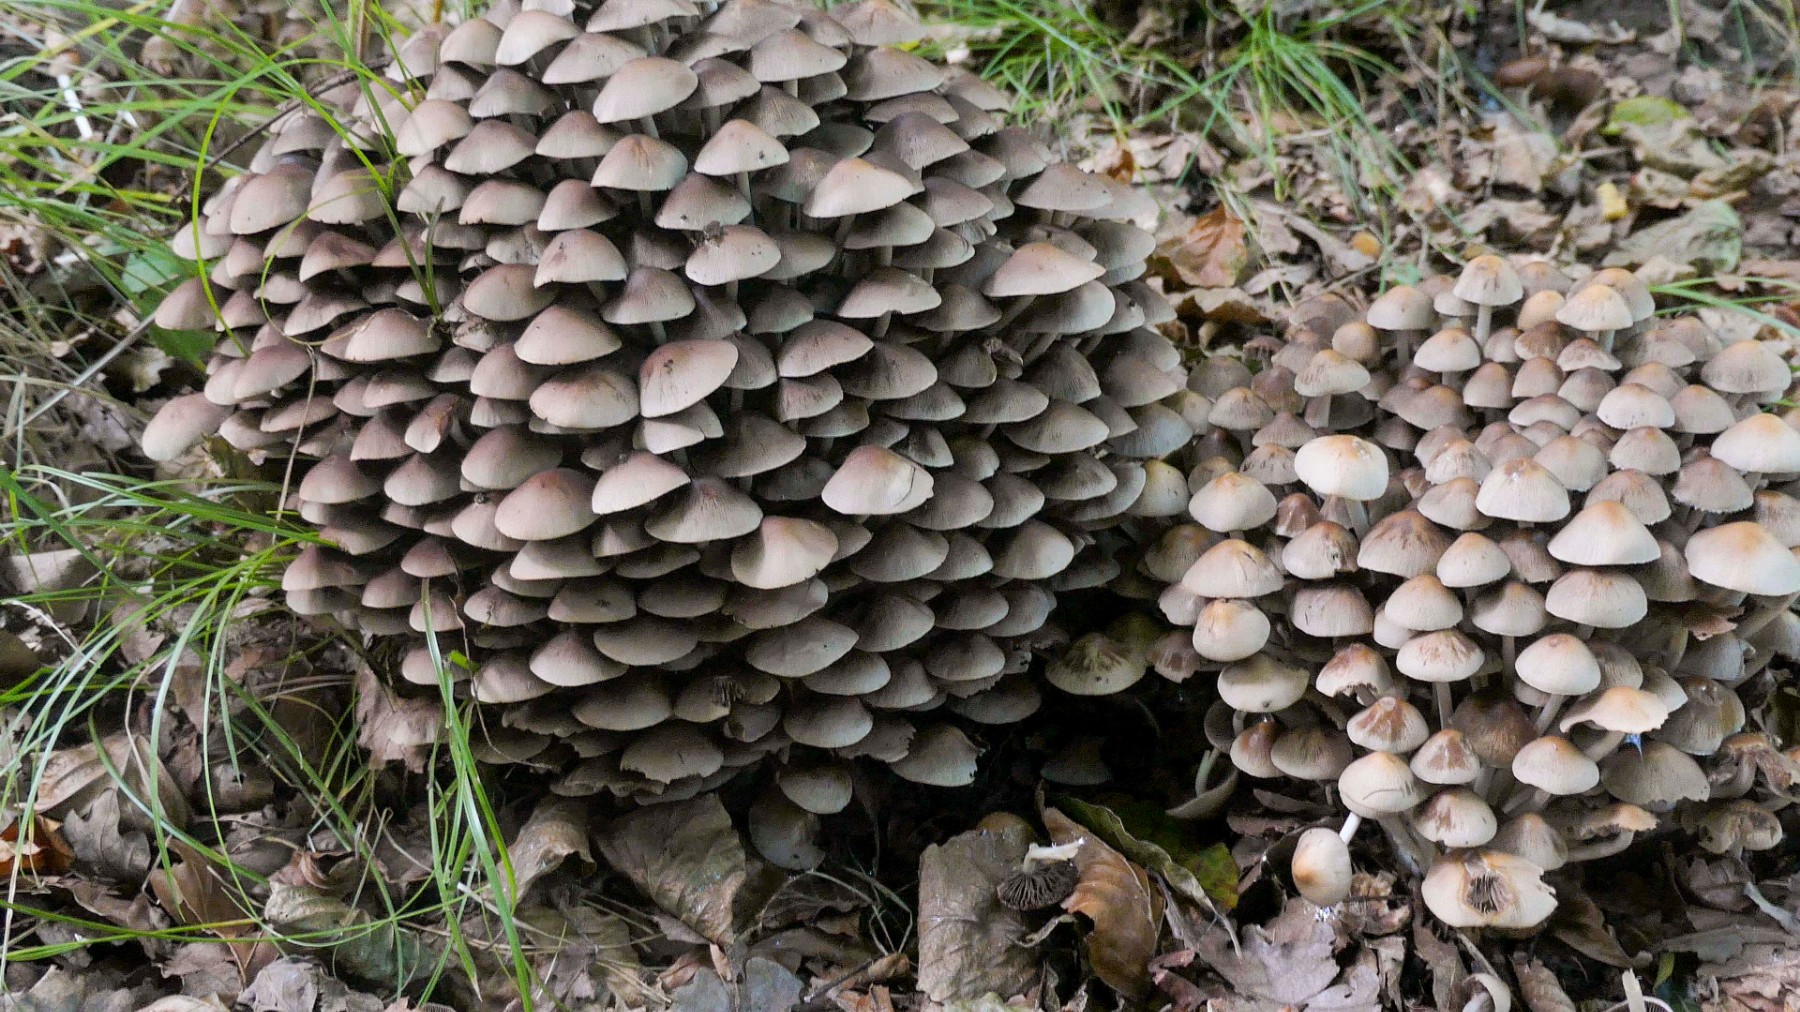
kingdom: Fungi
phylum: Basidiomycota
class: Agaricomycetes
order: Agaricales
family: Psathyrellaceae
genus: Britzelmayria
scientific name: Britzelmayria multipedata
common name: knippe-mørkhat
